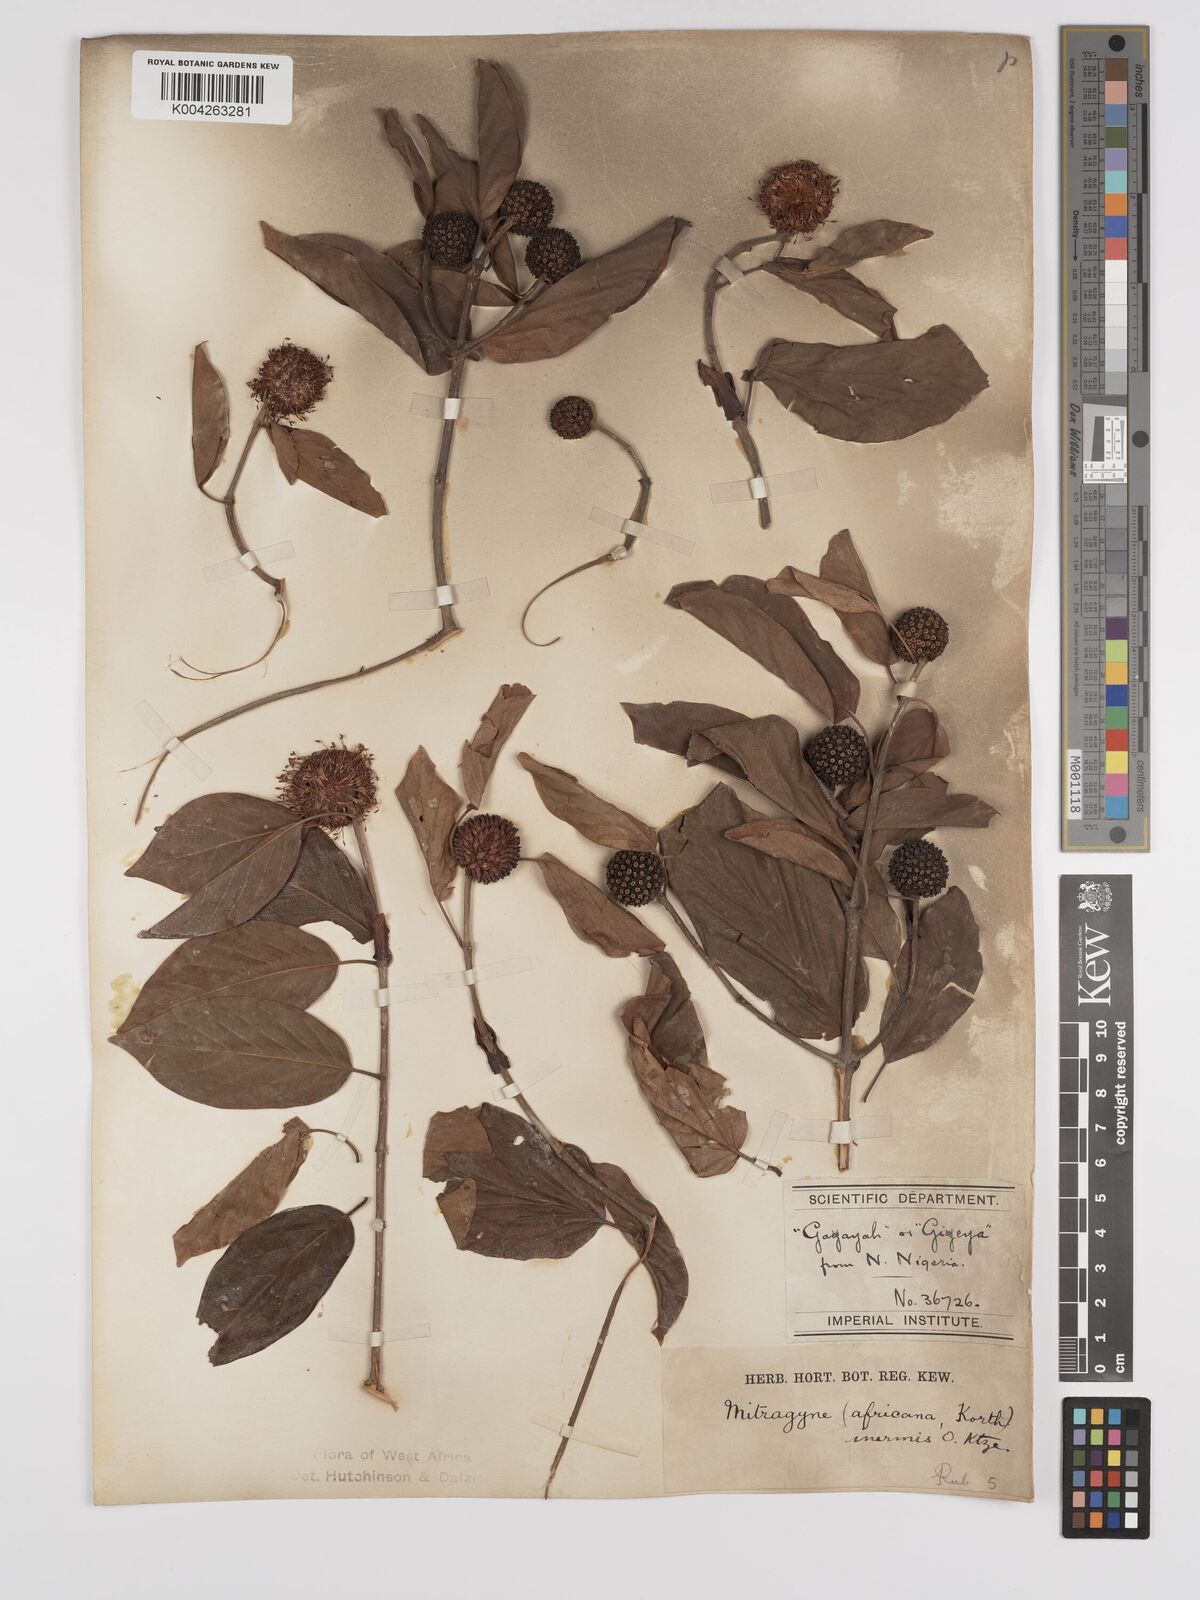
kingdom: Plantae
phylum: Tracheophyta
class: Magnoliopsida
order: Gentianales
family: Rubiaceae
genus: Mitragyna
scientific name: Mitragyna inermis
